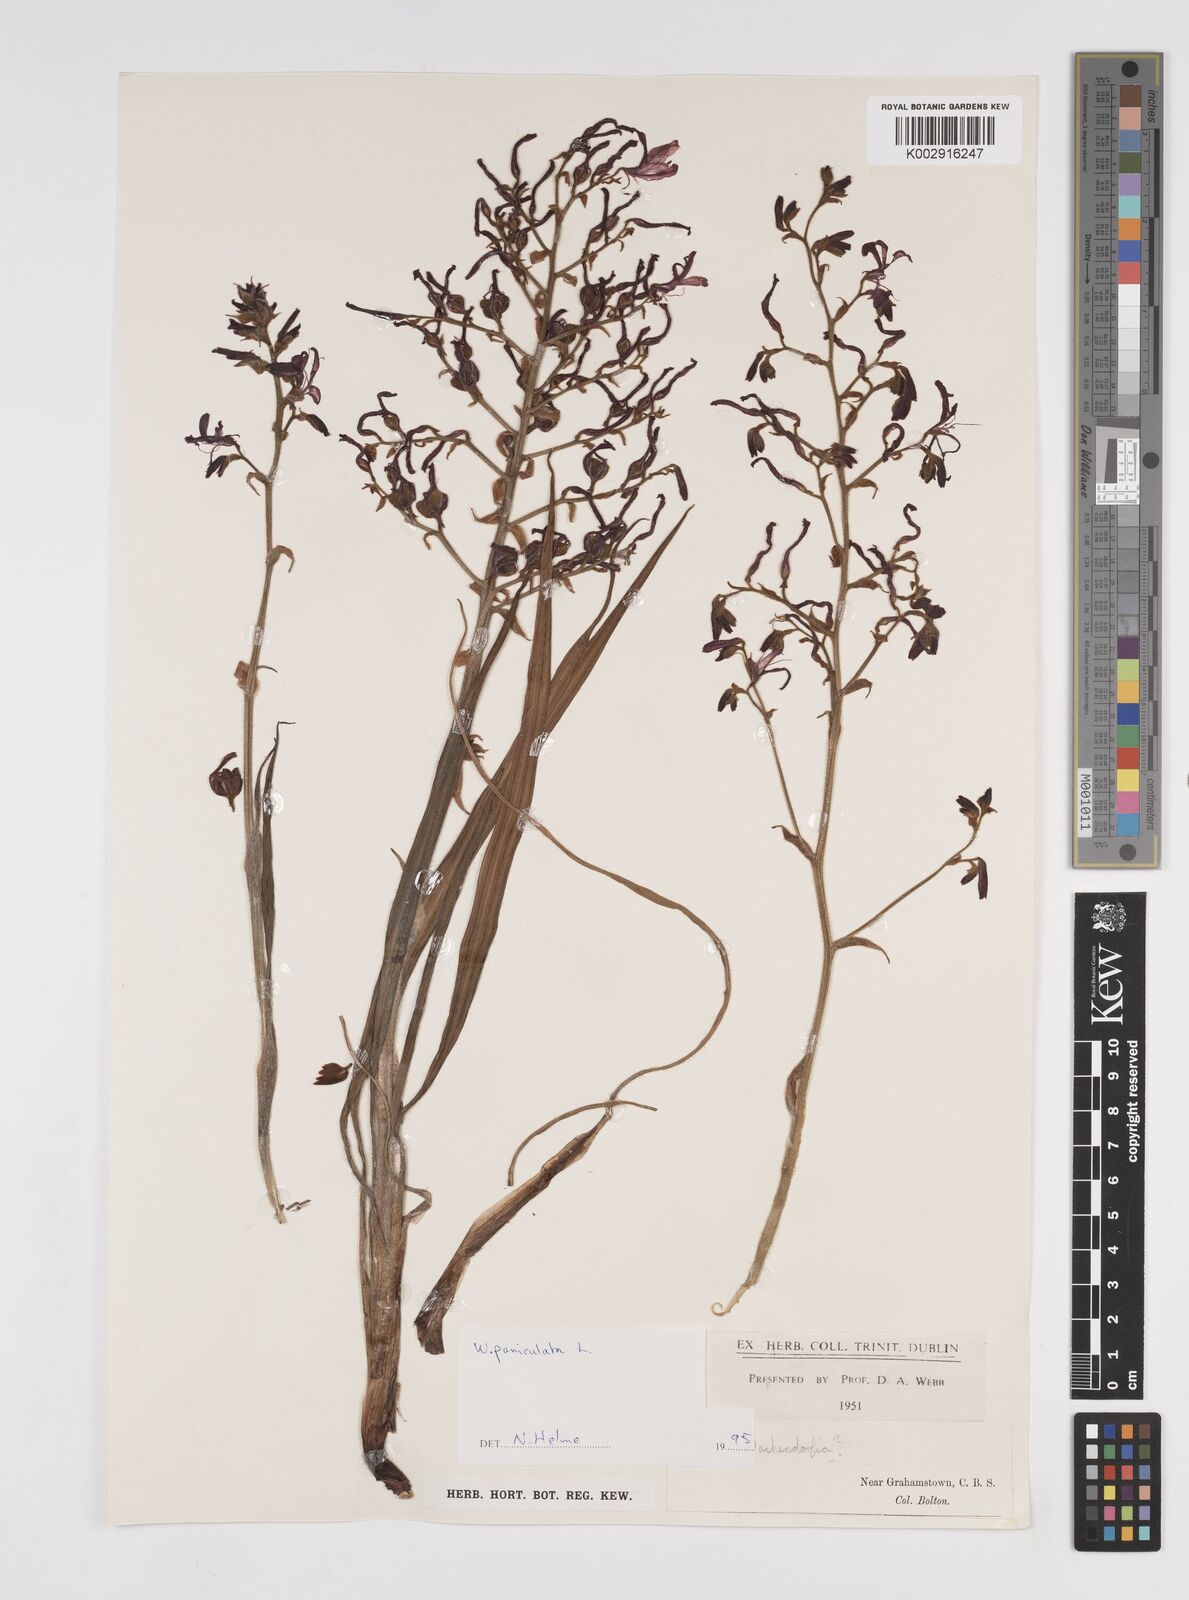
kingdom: Plantae
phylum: Tracheophyta
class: Liliopsida
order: Commelinales
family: Haemodoraceae
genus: Wachendorfia
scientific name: Wachendorfia paniculata
